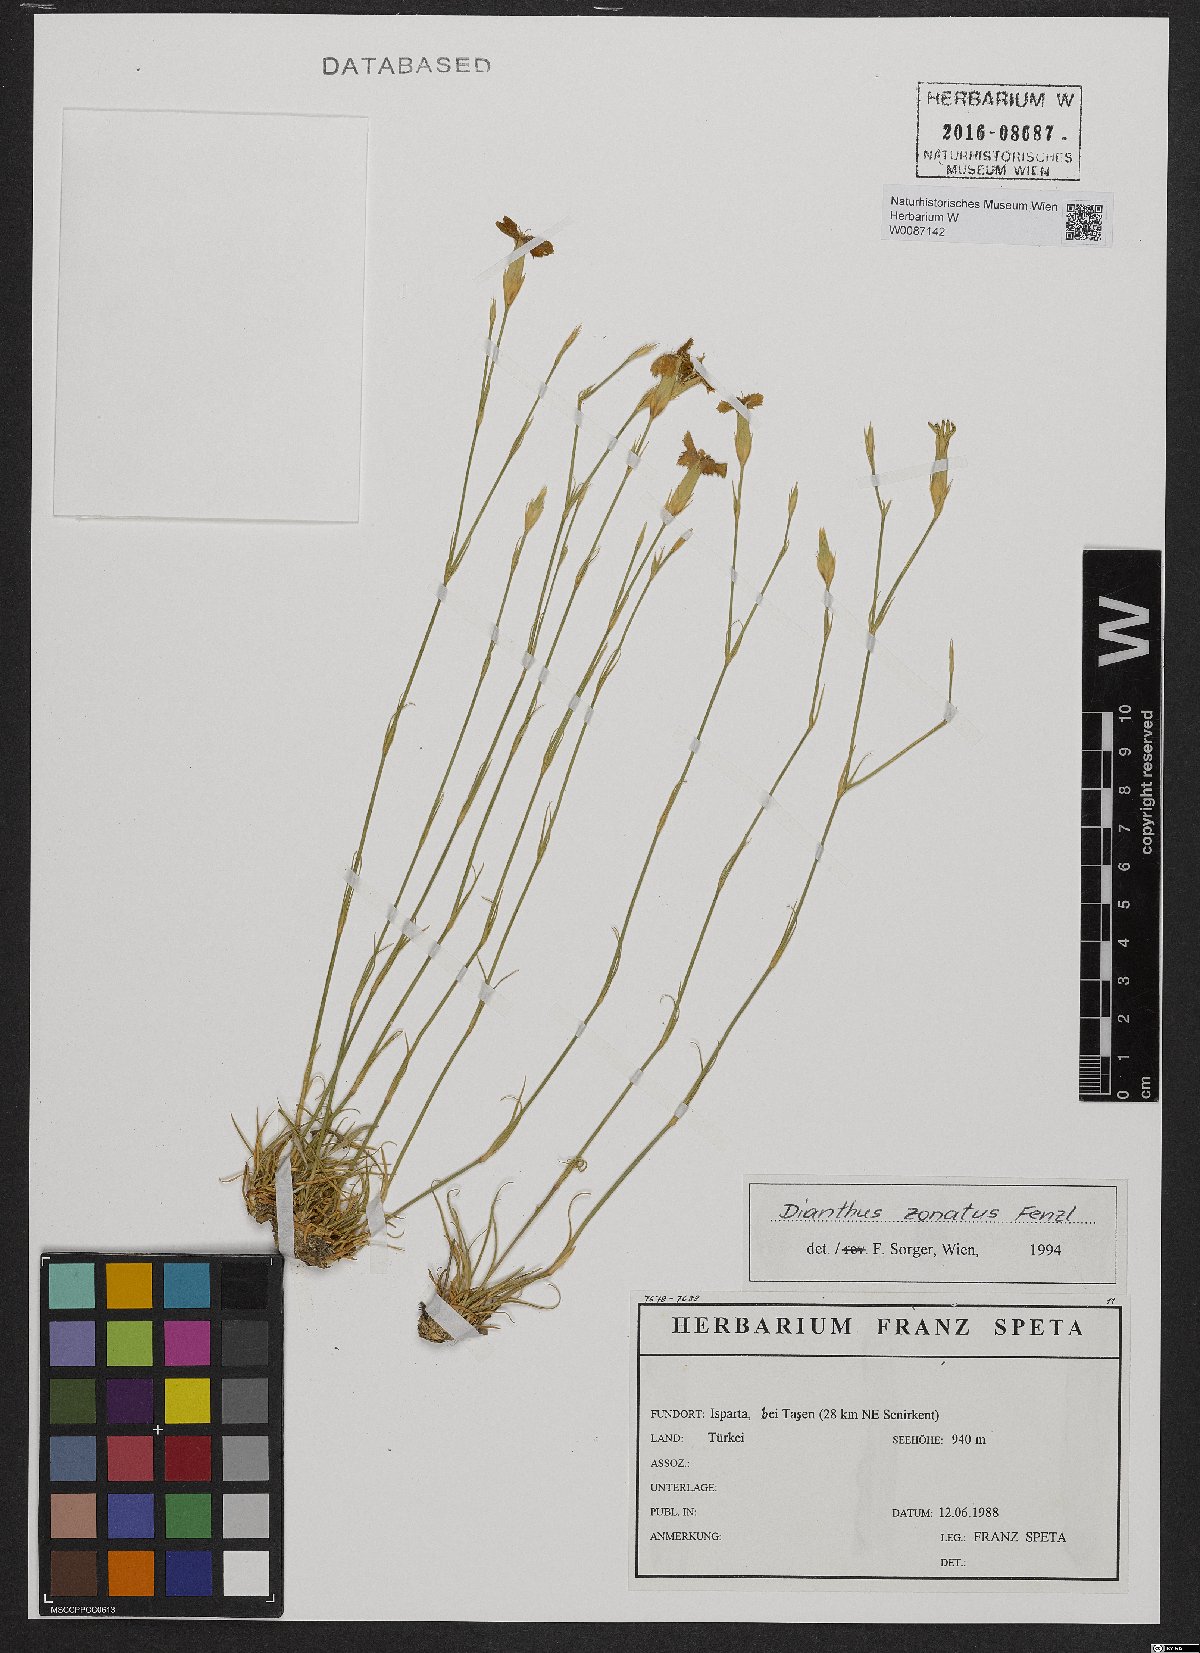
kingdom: Plantae
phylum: Tracheophyta
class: Magnoliopsida
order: Caryophyllales
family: Caryophyllaceae
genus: Dianthus
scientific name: Dianthus zonatus
